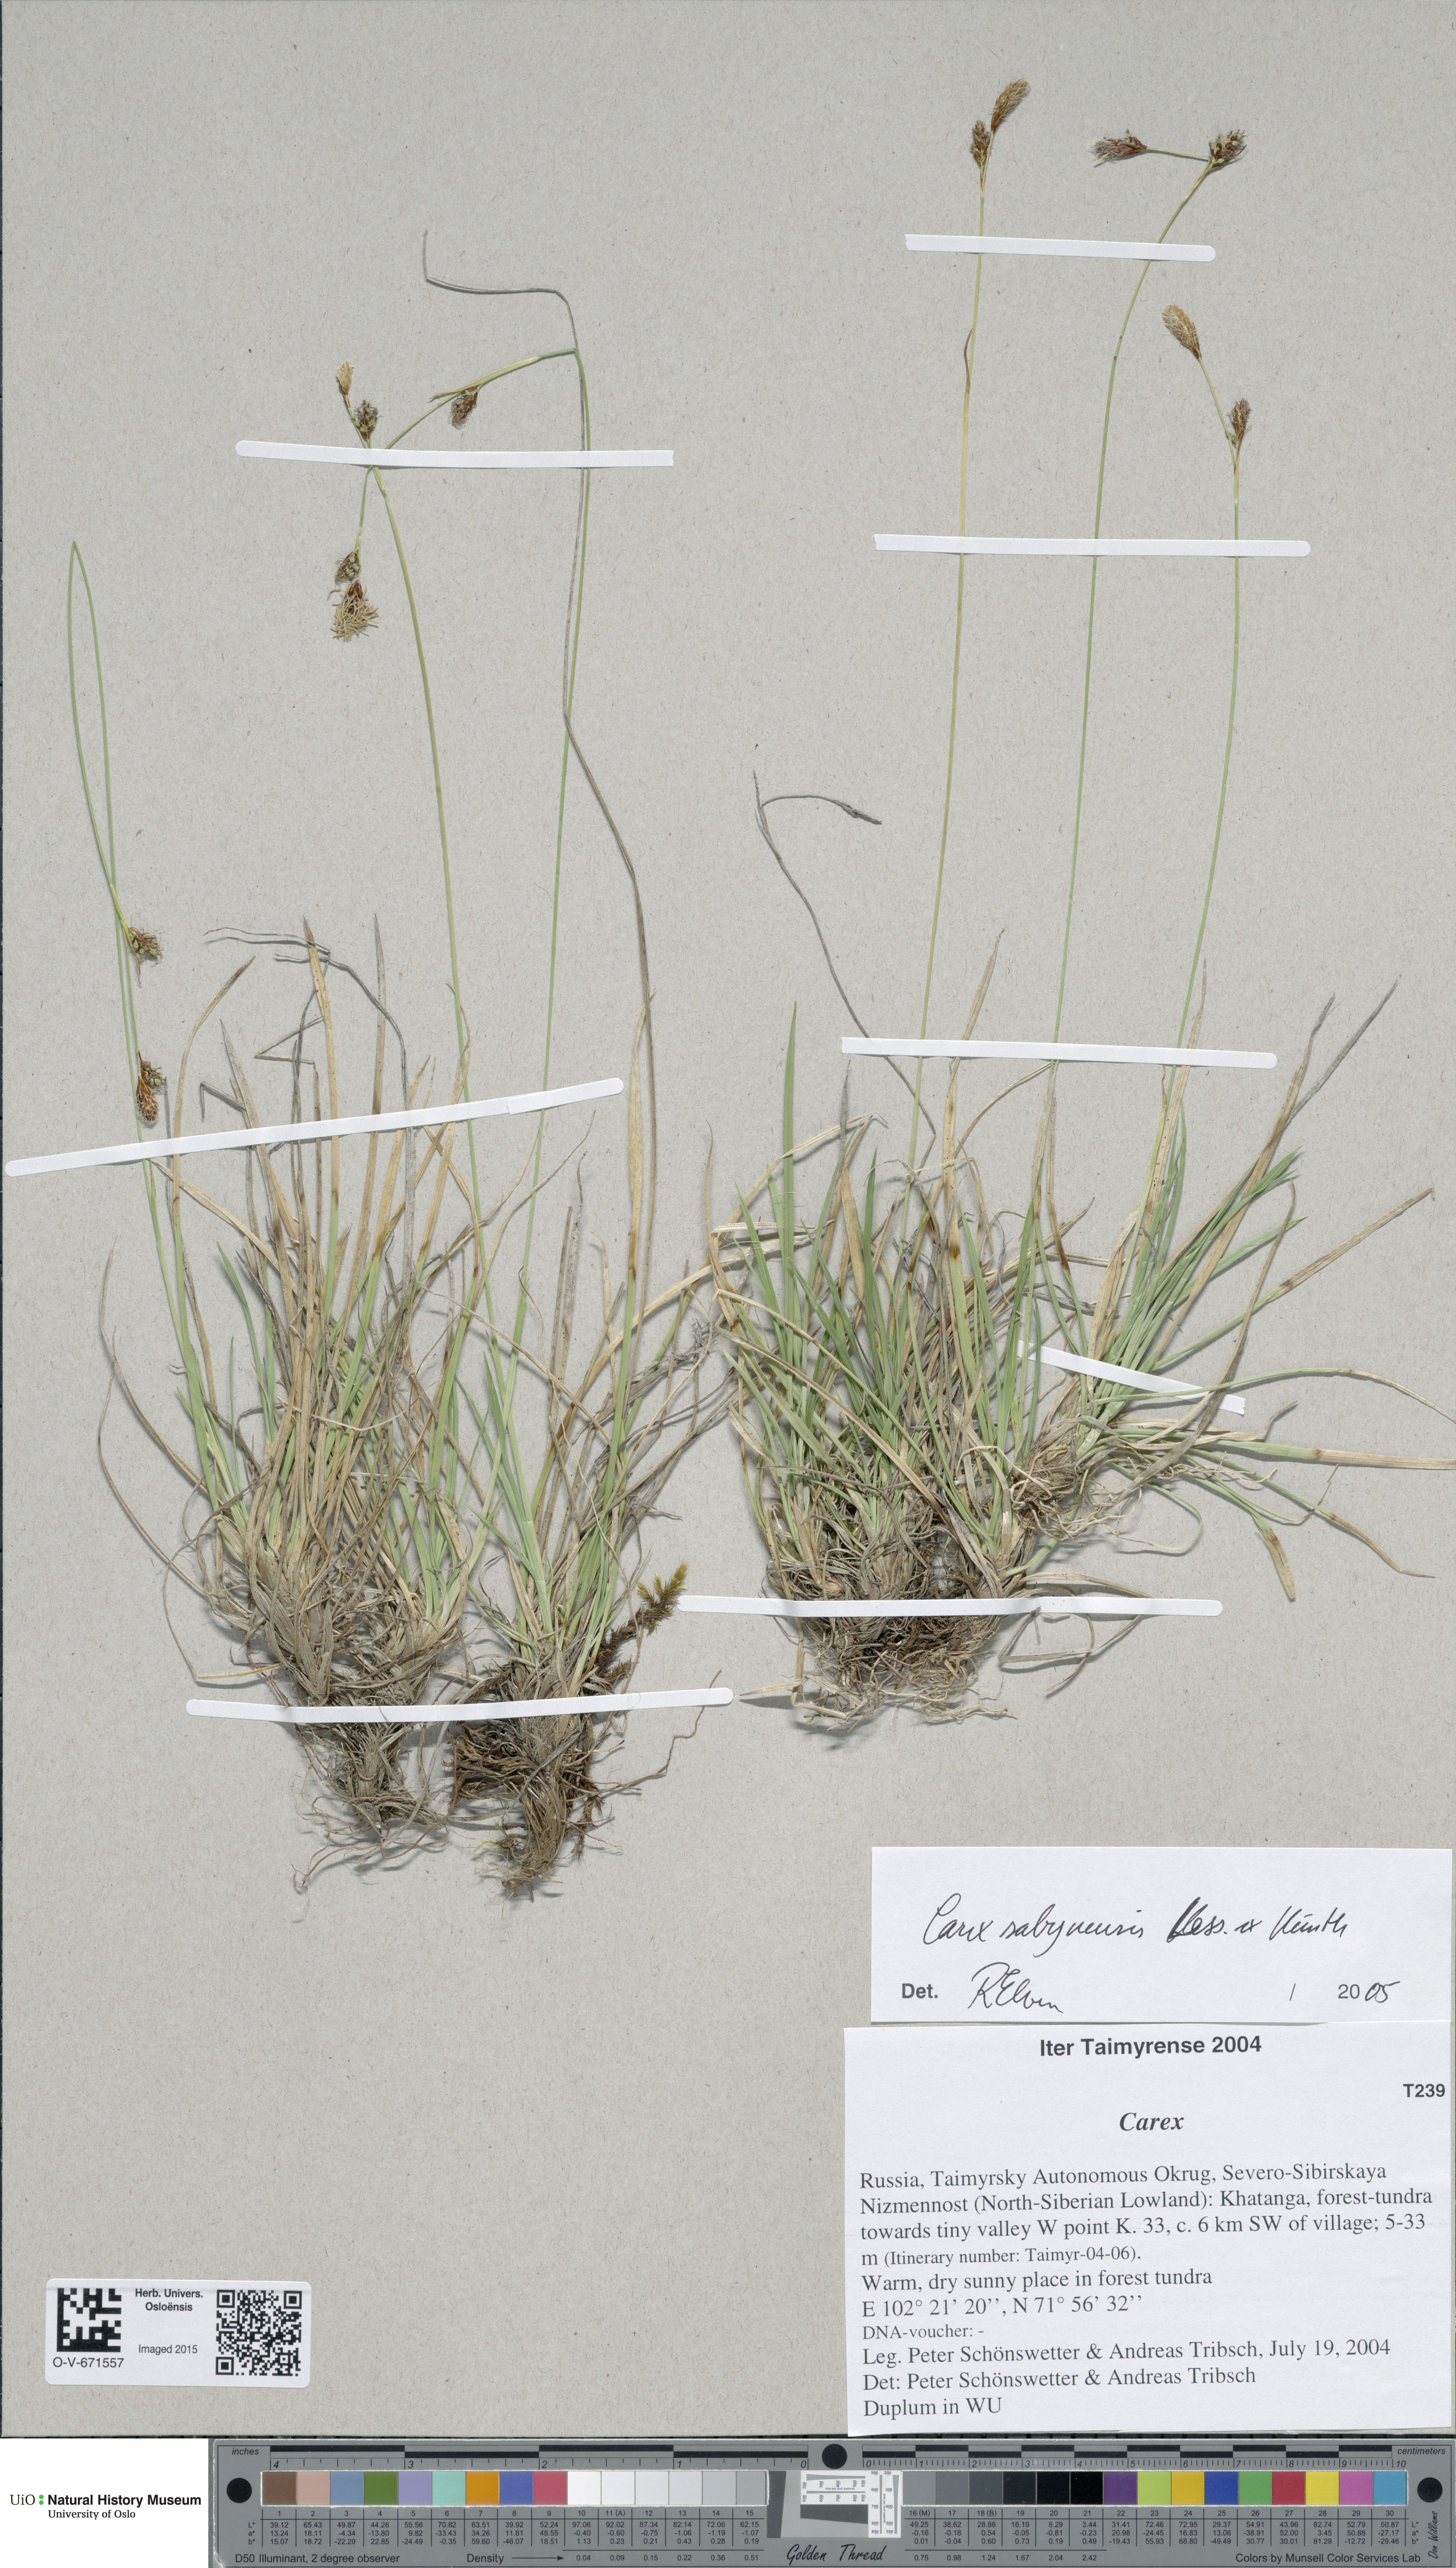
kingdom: Plantae
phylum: Tracheophyta
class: Liliopsida
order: Poales
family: Cyperaceae
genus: Carex
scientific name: Carex umbrosa
